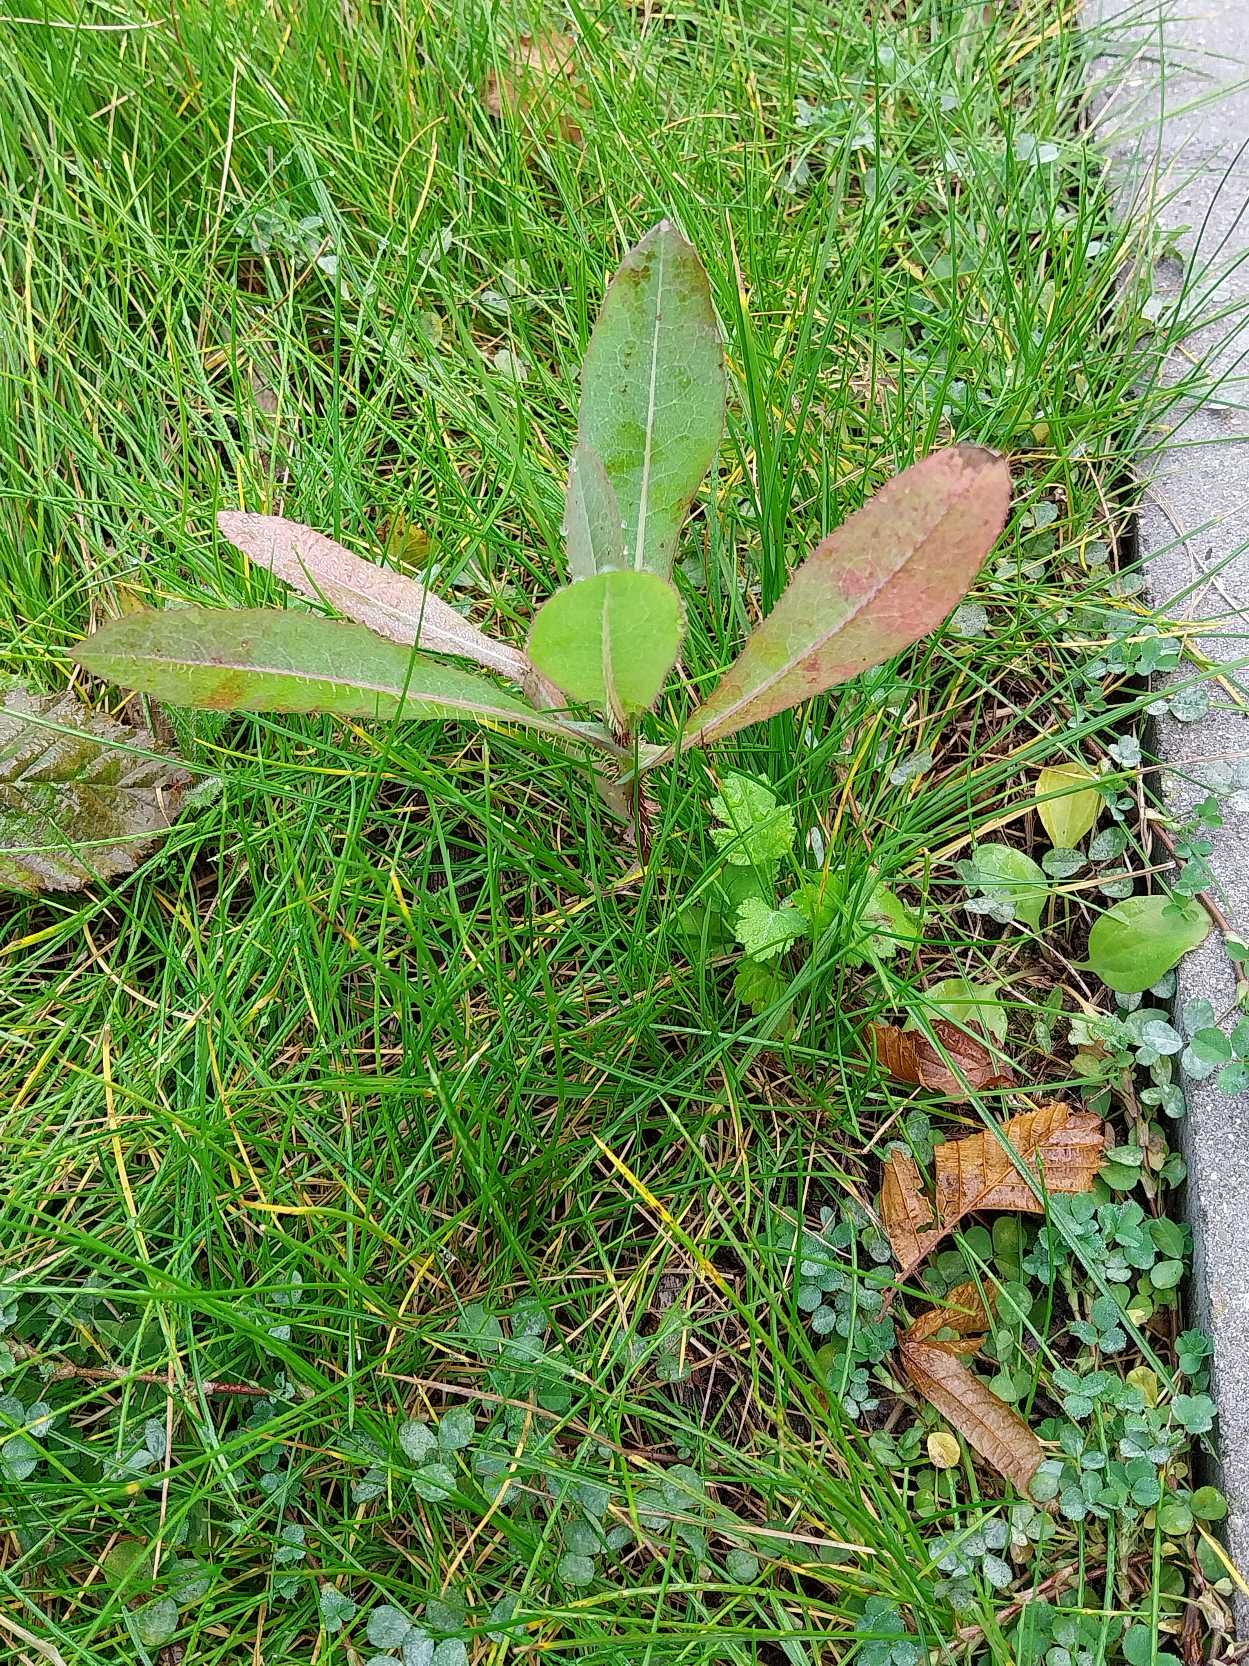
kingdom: Plantae
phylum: Tracheophyta
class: Magnoliopsida
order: Asterales
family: Asteraceae
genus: Lactuca
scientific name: Lactuca serriola
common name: Tornet salat
